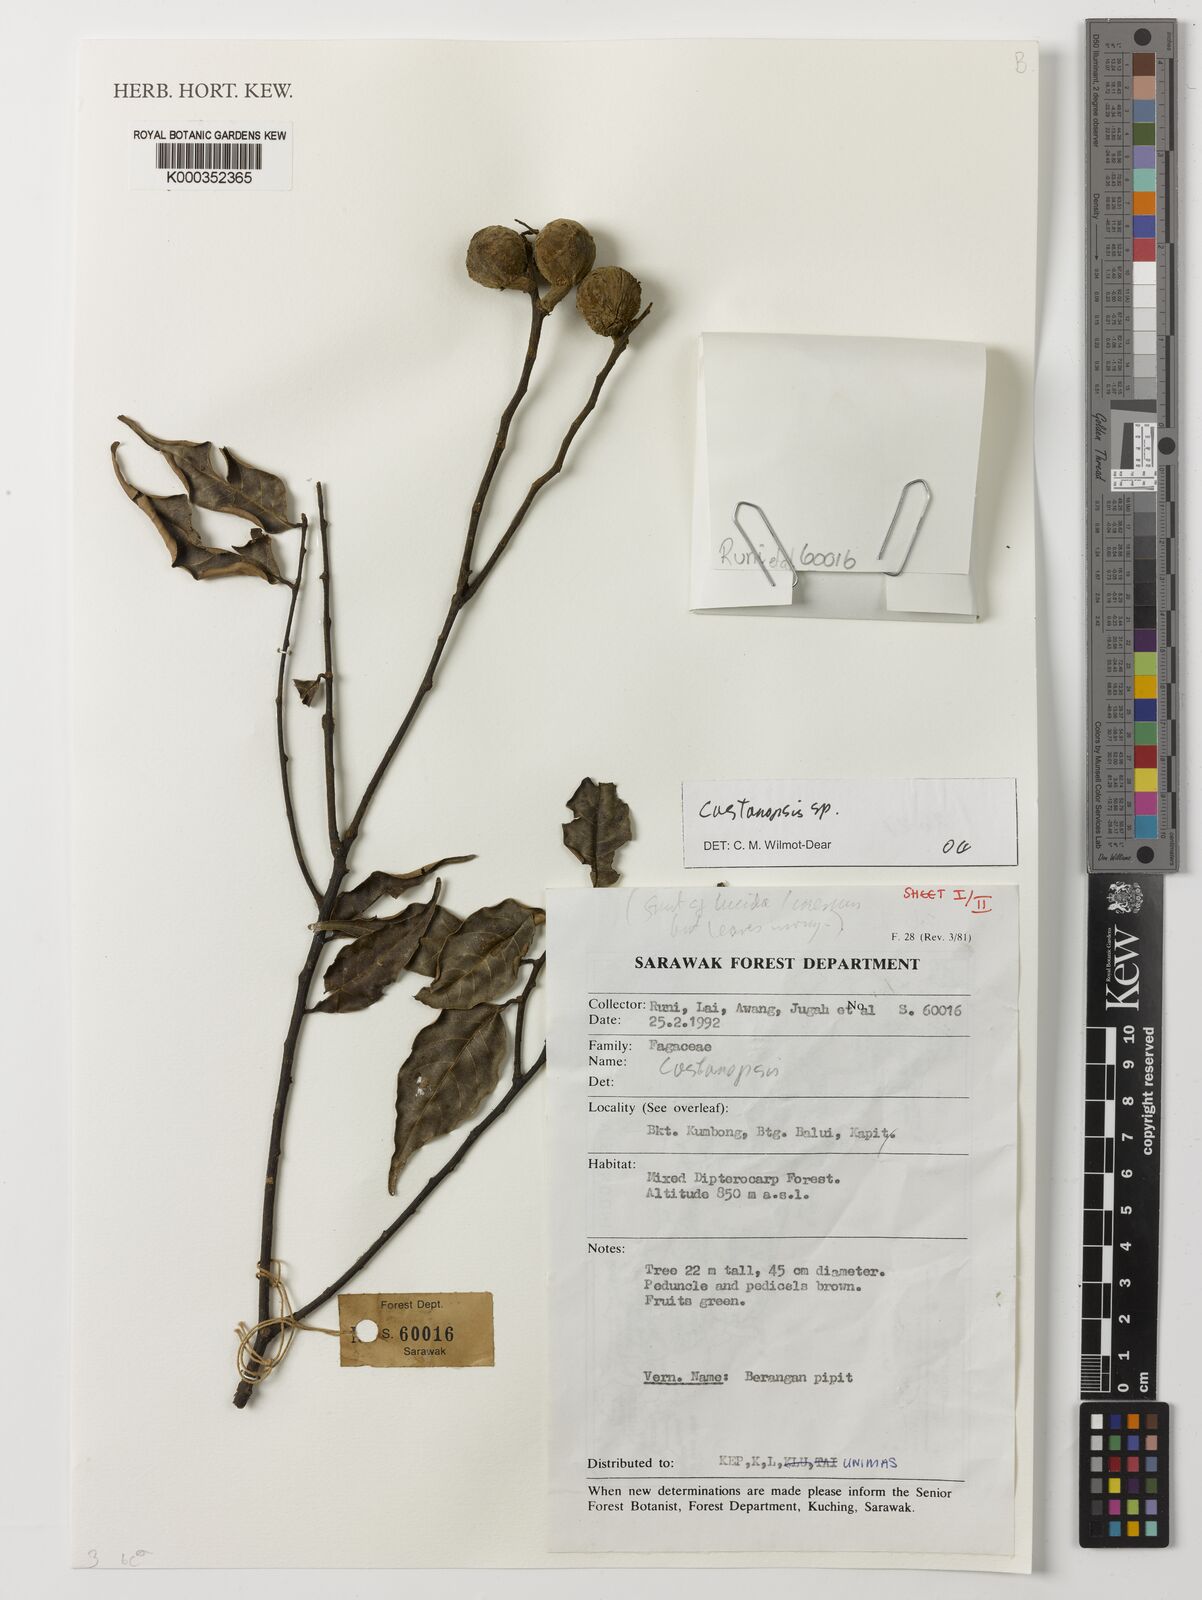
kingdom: Plantae
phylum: Tracheophyta
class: Magnoliopsida
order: Fagales
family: Fagaceae
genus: Castanopsis
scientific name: Castanopsis
